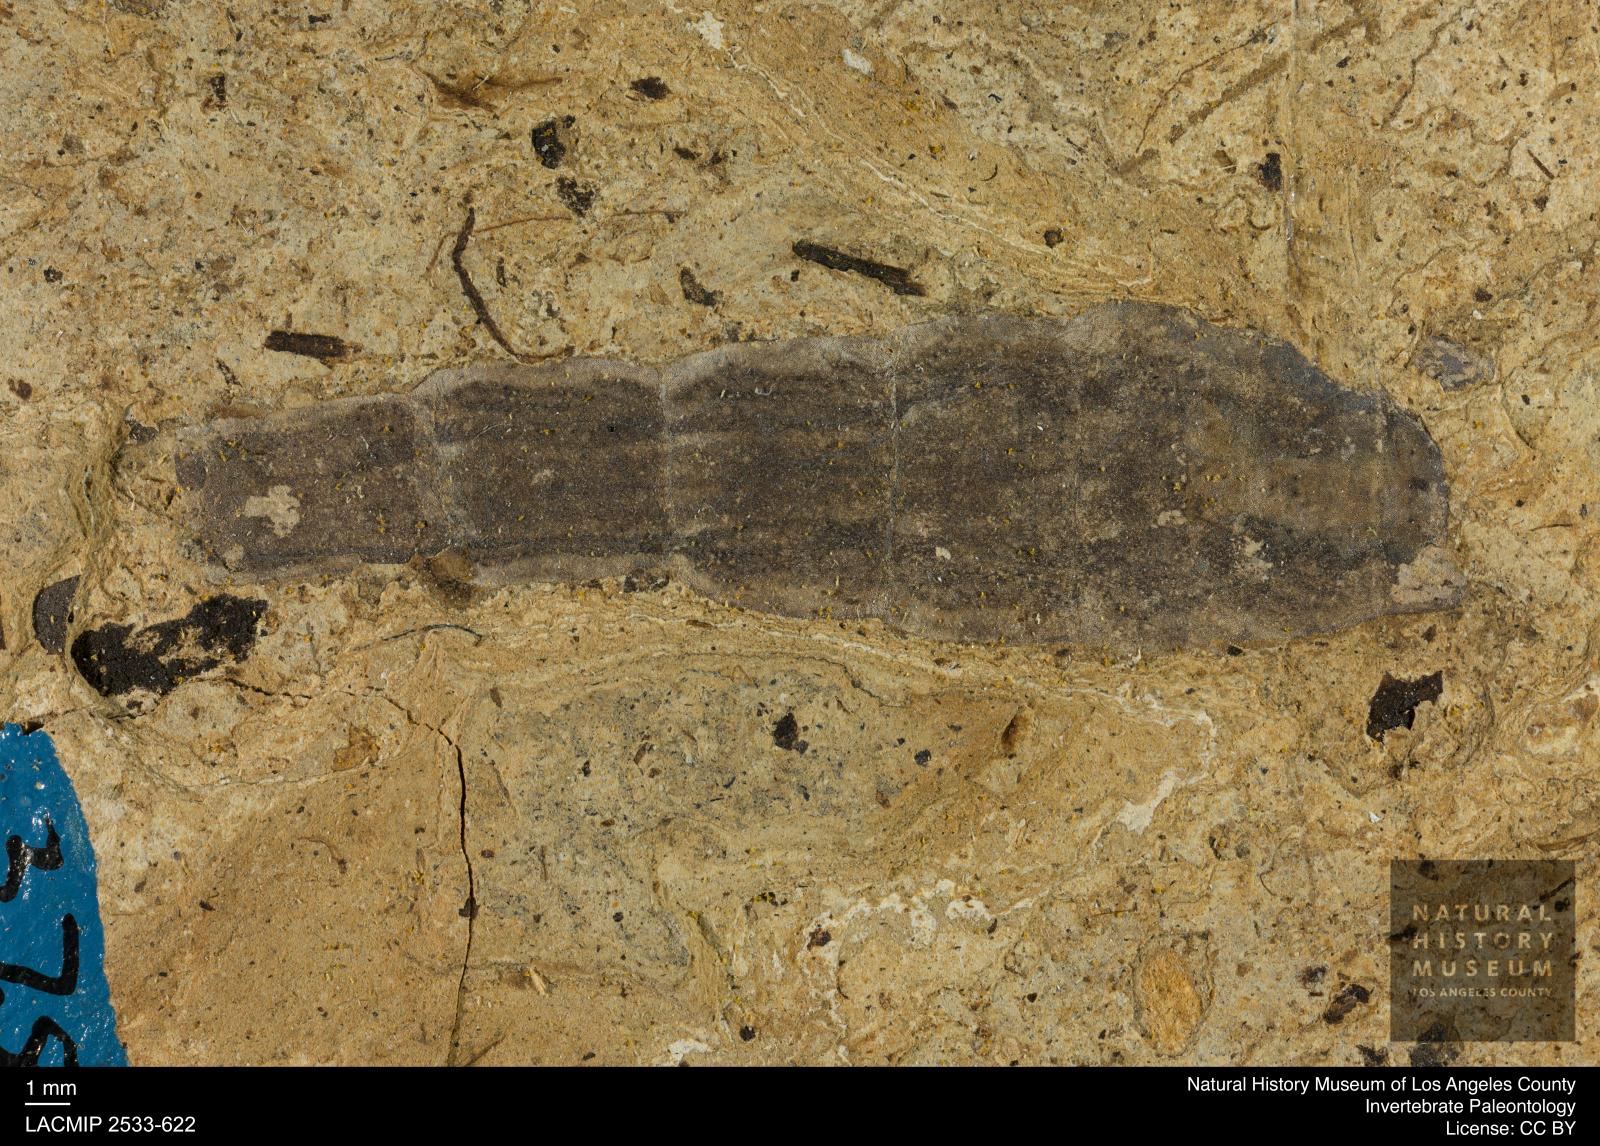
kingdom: Animalia
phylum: Arthropoda
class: Insecta
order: Diptera
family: Stratiomyidae
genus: Odontomyia
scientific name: Odontomyia
